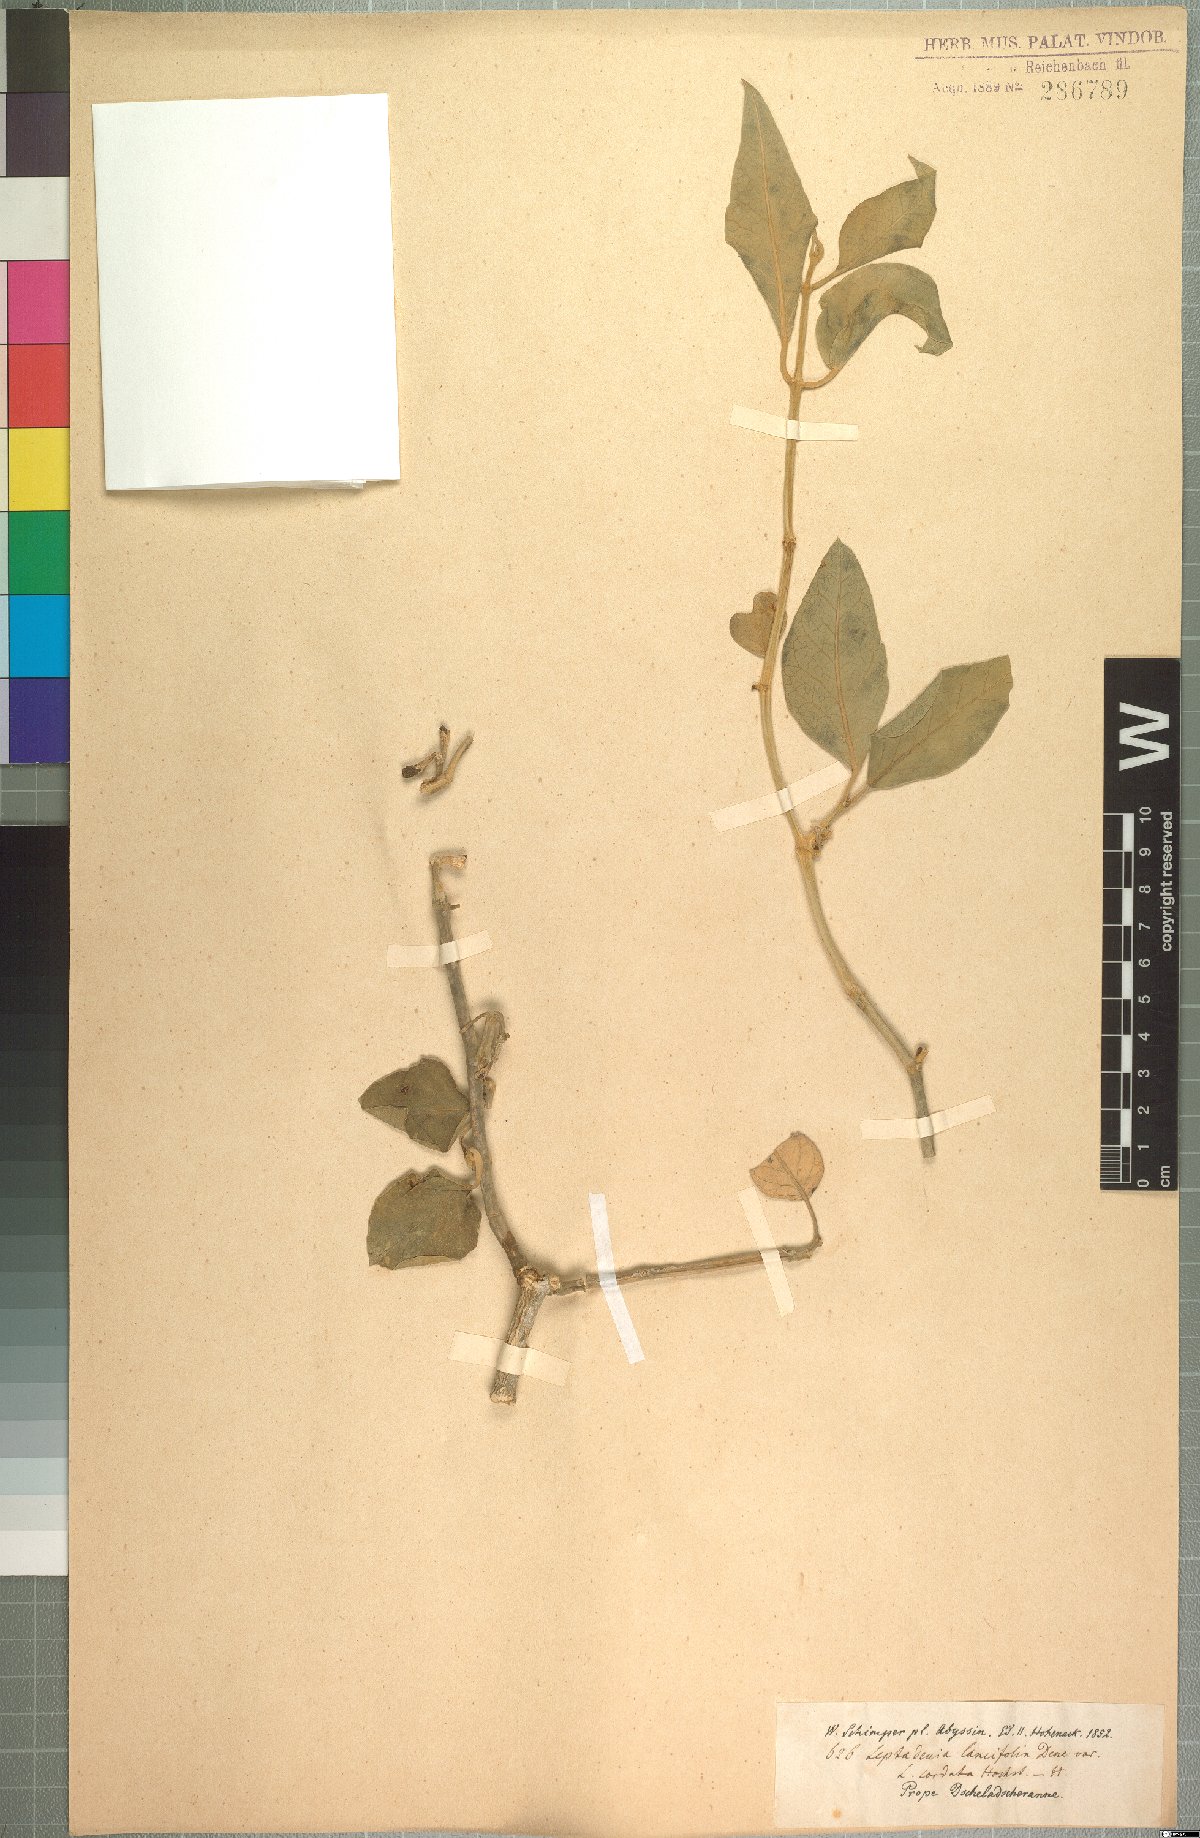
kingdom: Plantae
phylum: Tracheophyta
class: Magnoliopsida
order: Gentianales
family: Apocynaceae
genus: Leptadenia
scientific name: Leptadenia lanceolata
